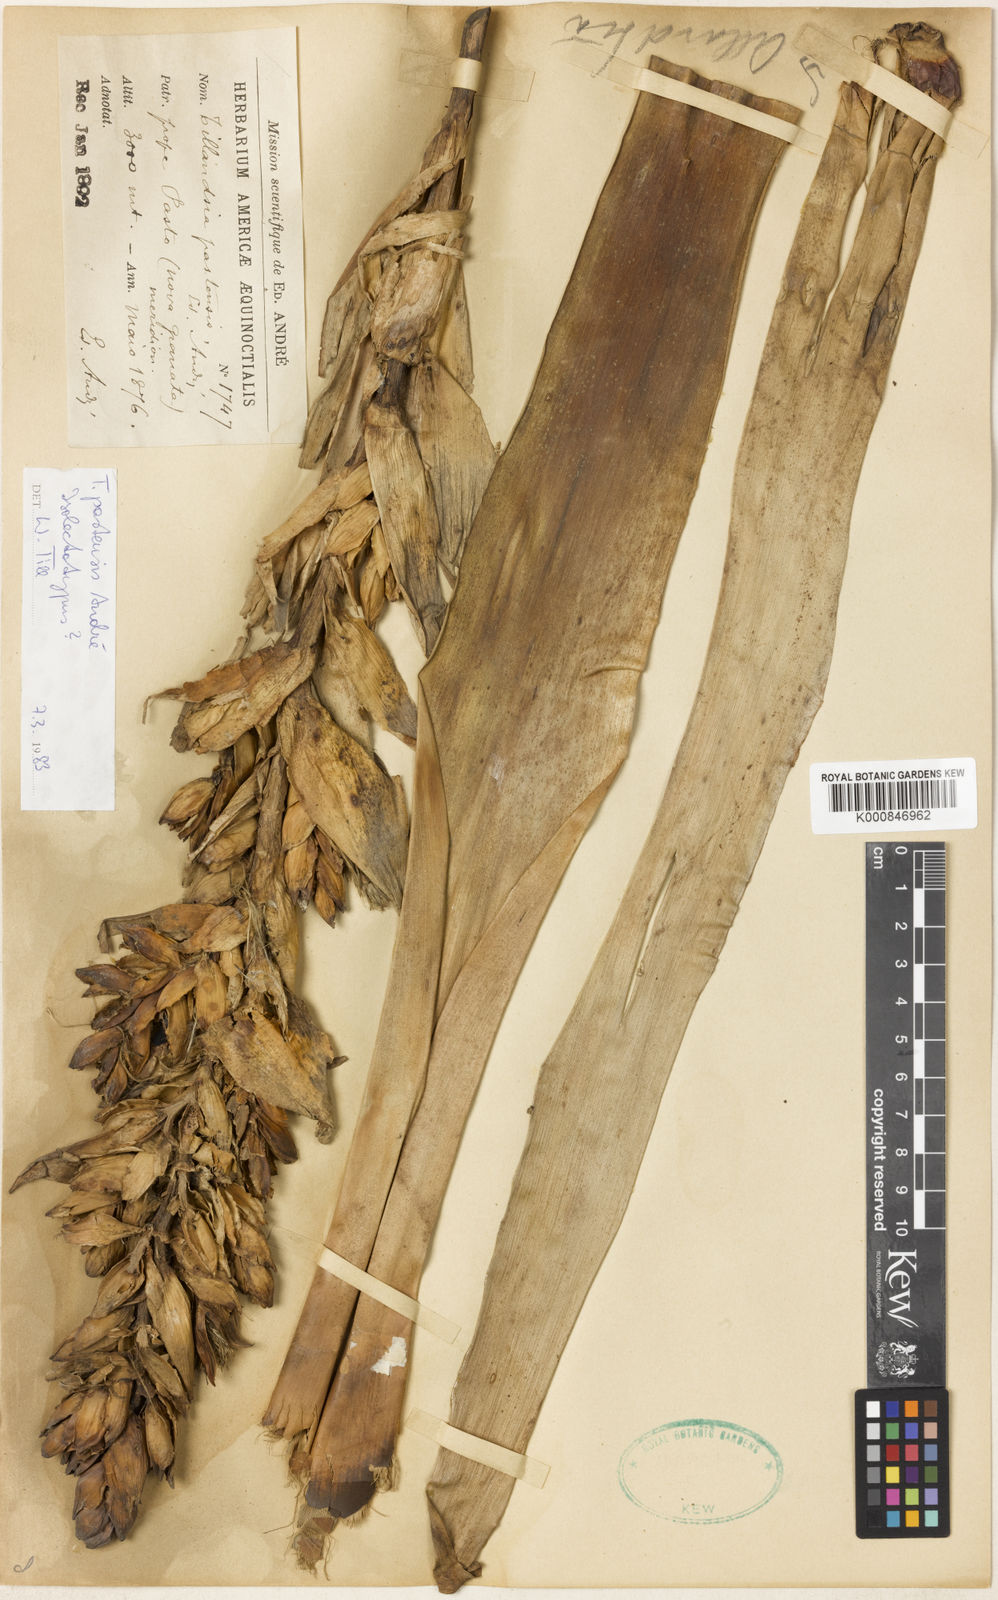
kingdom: Plantae
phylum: Tracheophyta
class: Liliopsida
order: Poales
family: Bromeliaceae
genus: Tillandsia
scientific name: Tillandsia
